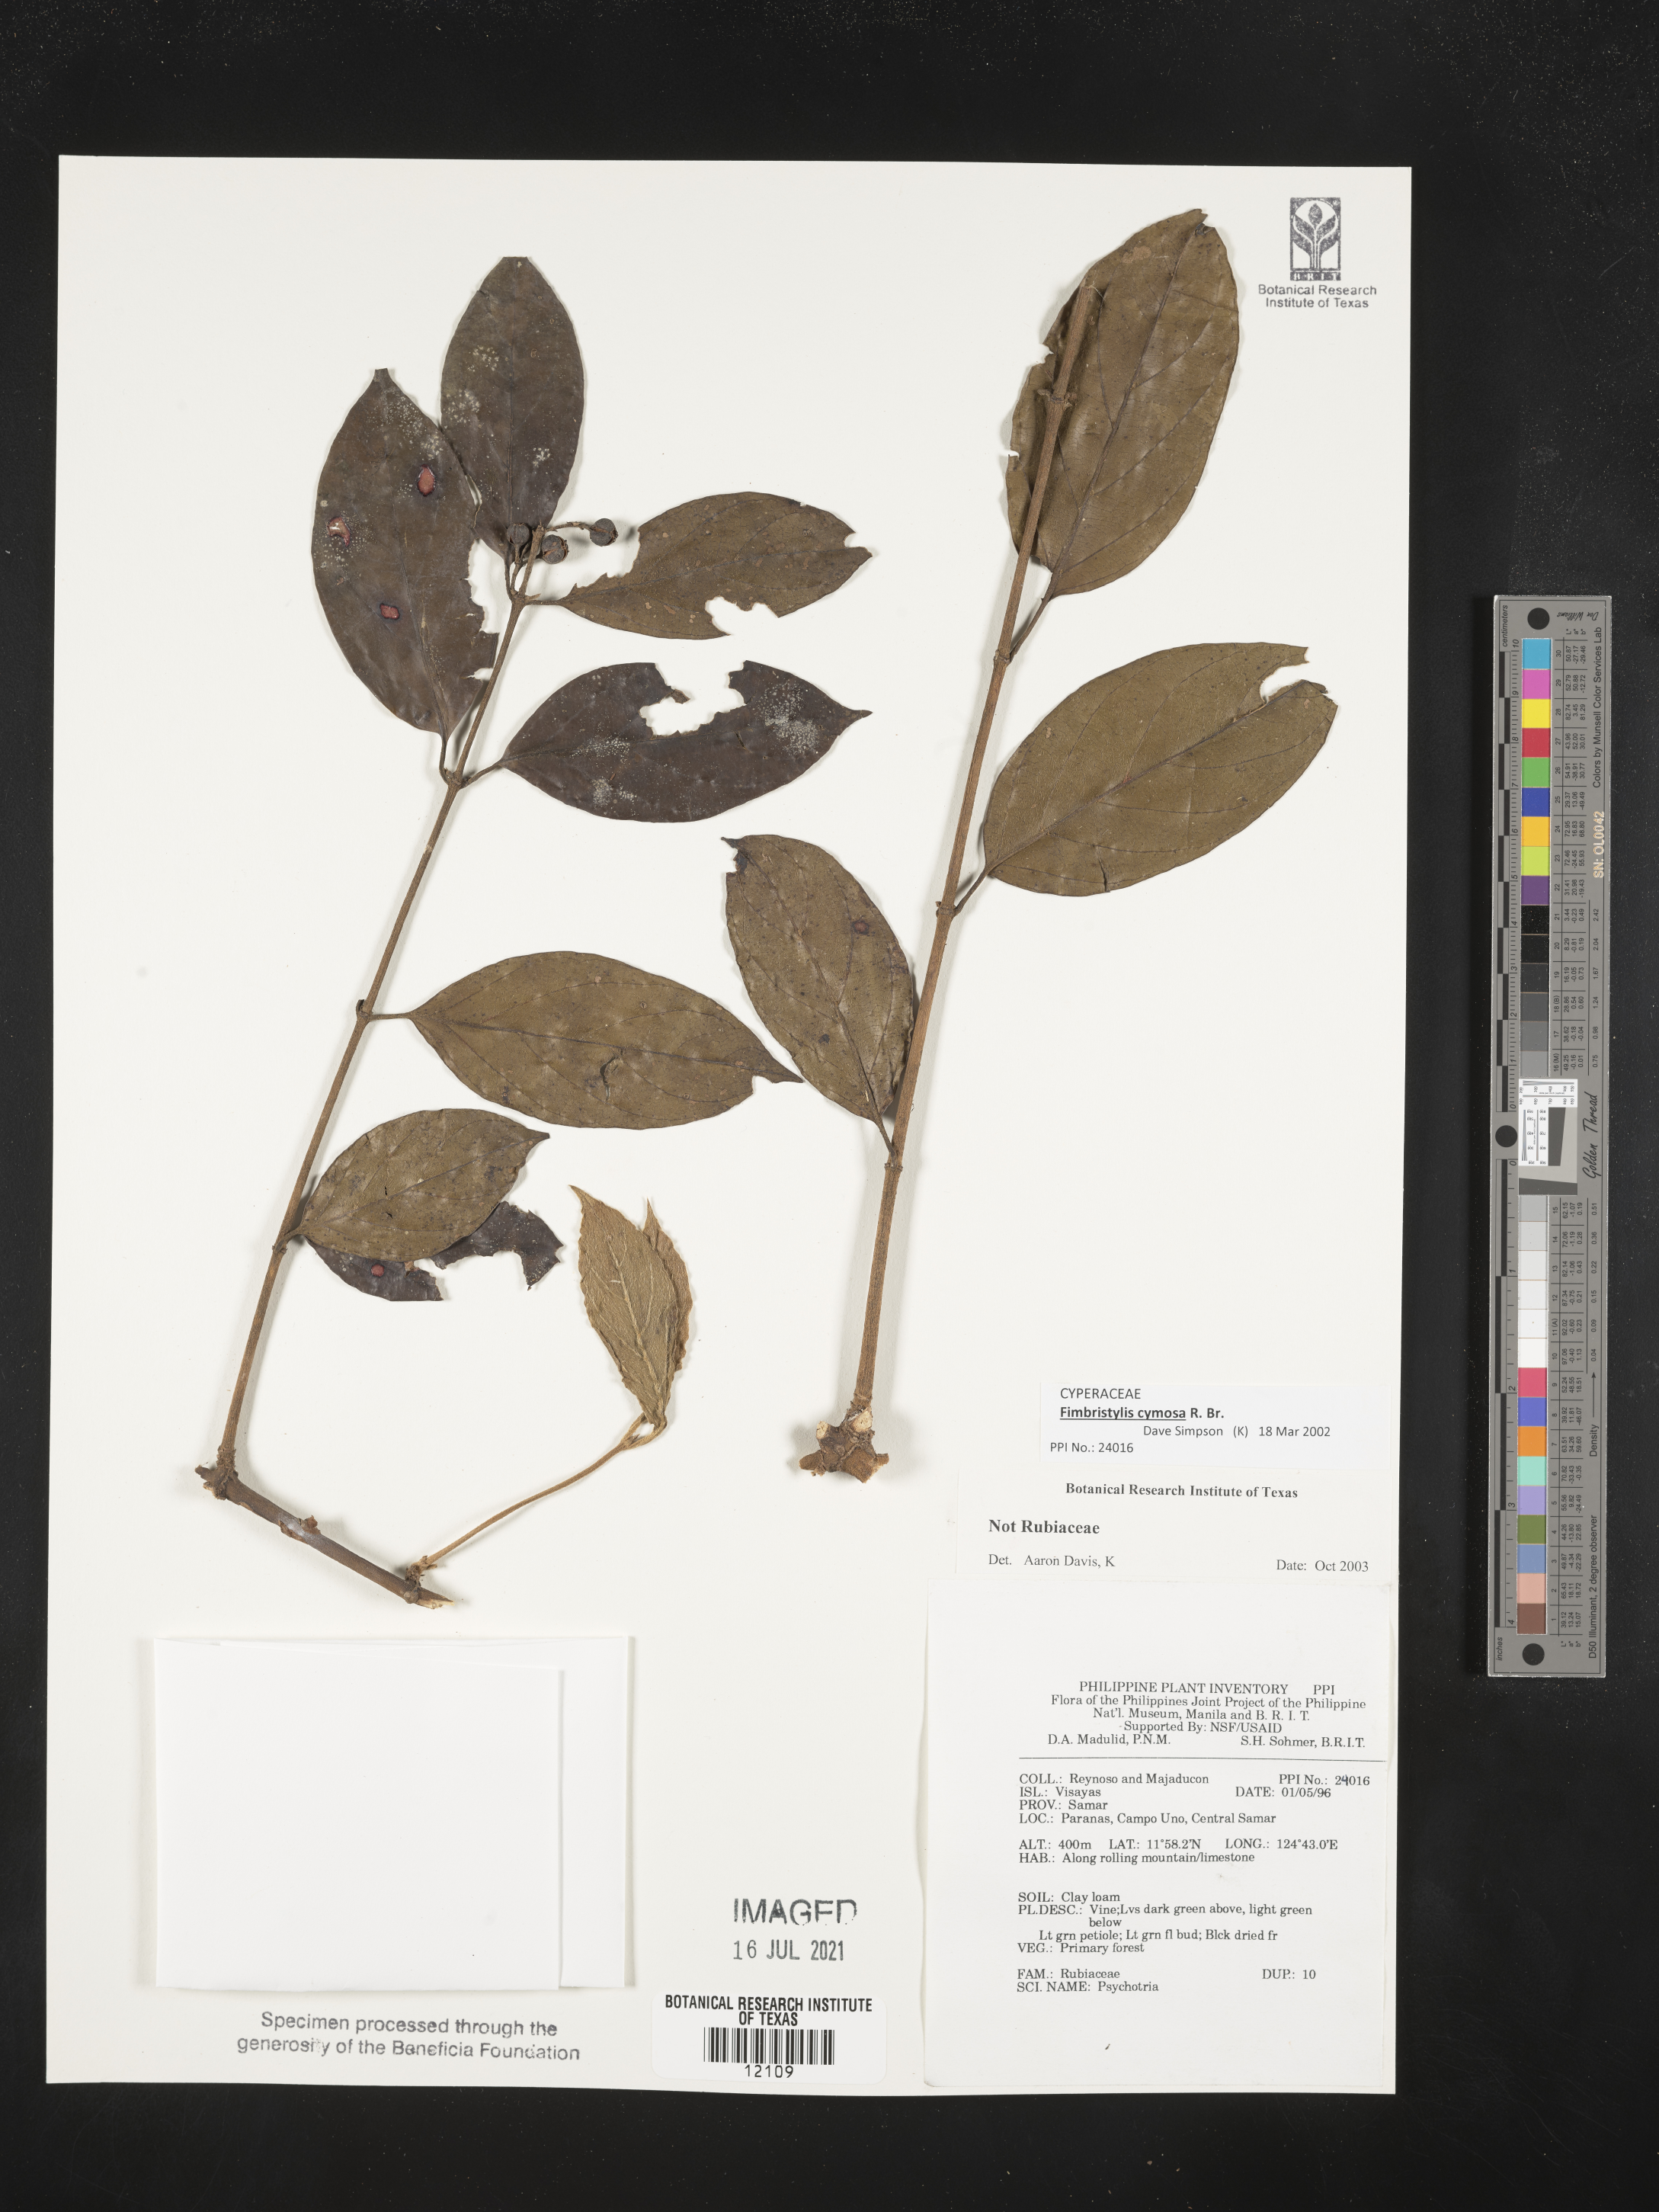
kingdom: Plantae
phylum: Tracheophyta
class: Liliopsida
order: Poales
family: Cyperaceae
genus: Fimbristylis
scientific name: Fimbristylis cymosa
